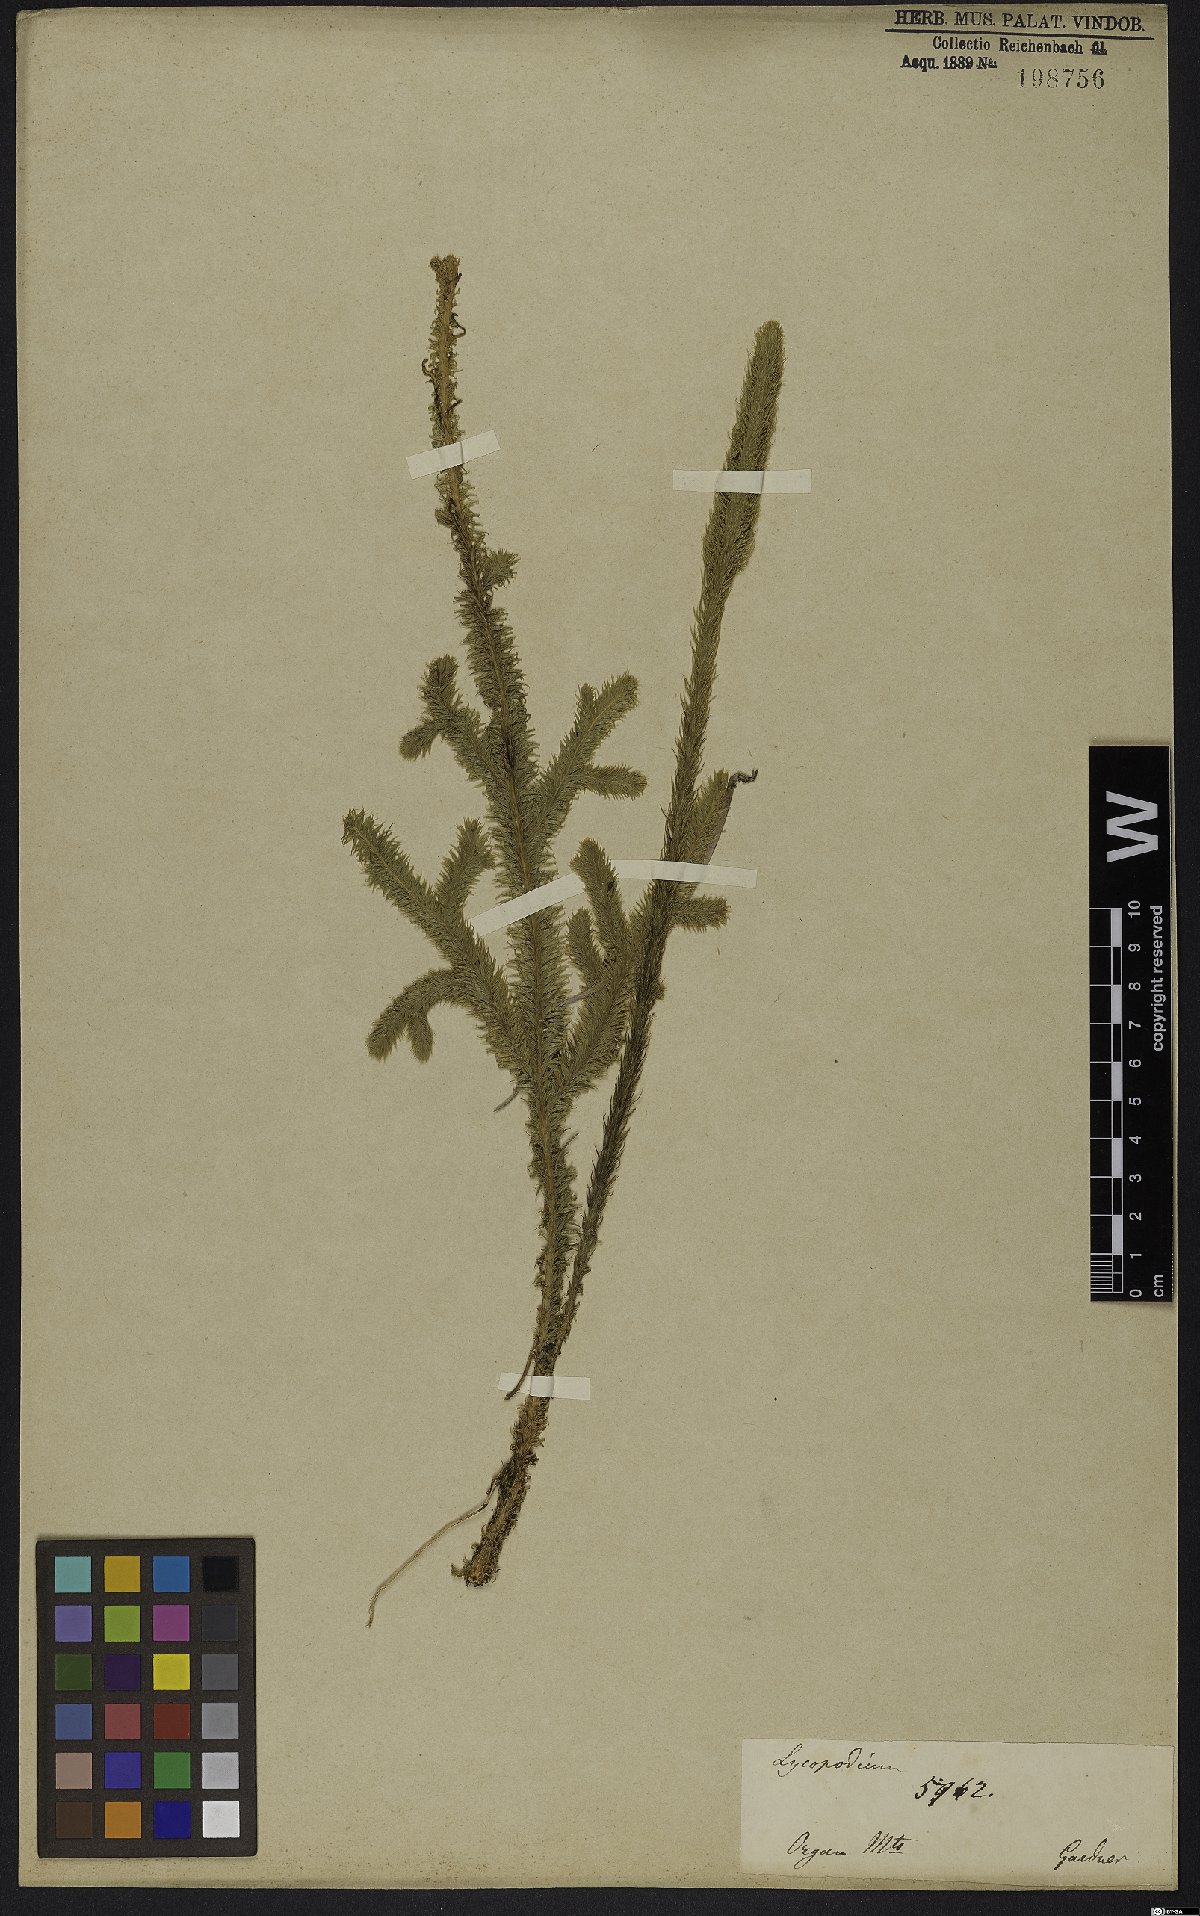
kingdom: Plantae
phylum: Tracheophyta
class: Lycopodiopsida
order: Lycopodiales
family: Lycopodiaceae
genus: Lycopodiella
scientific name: Lycopodiella alopecuroides
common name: Foxtail clubmoss
